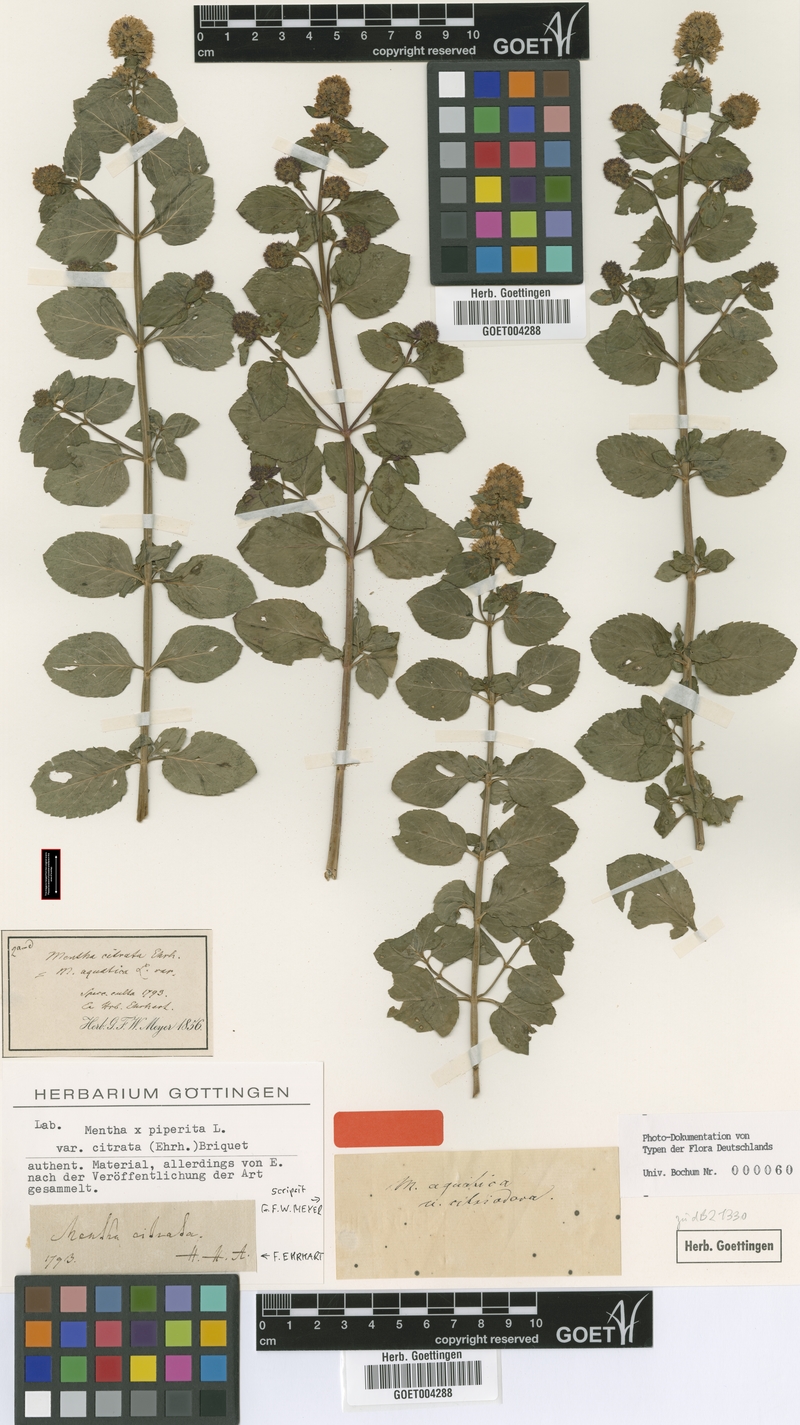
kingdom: Plantae
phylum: Tracheophyta
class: Magnoliopsida
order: Lamiales
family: Lamiaceae
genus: Mentha
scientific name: Mentha aquatica
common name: Water mint
